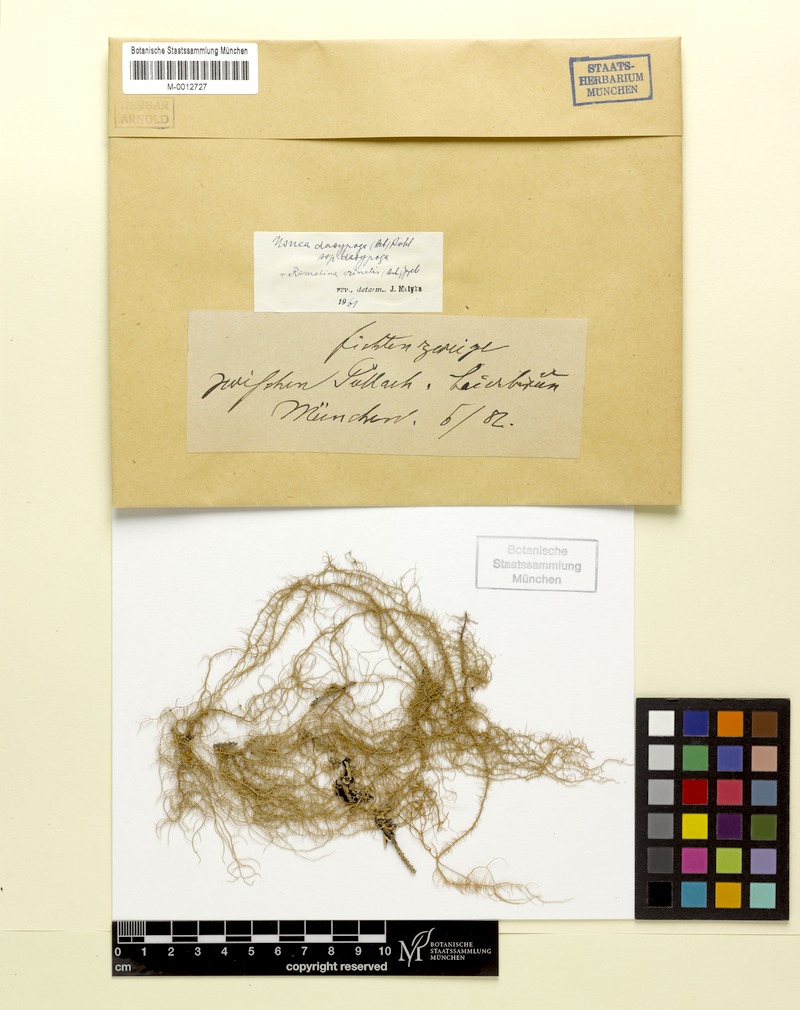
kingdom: Fungi
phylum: Ascomycota
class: Lecanoromycetes
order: Lecanorales
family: Ramalinaceae
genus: Ramalina
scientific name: Ramalina
